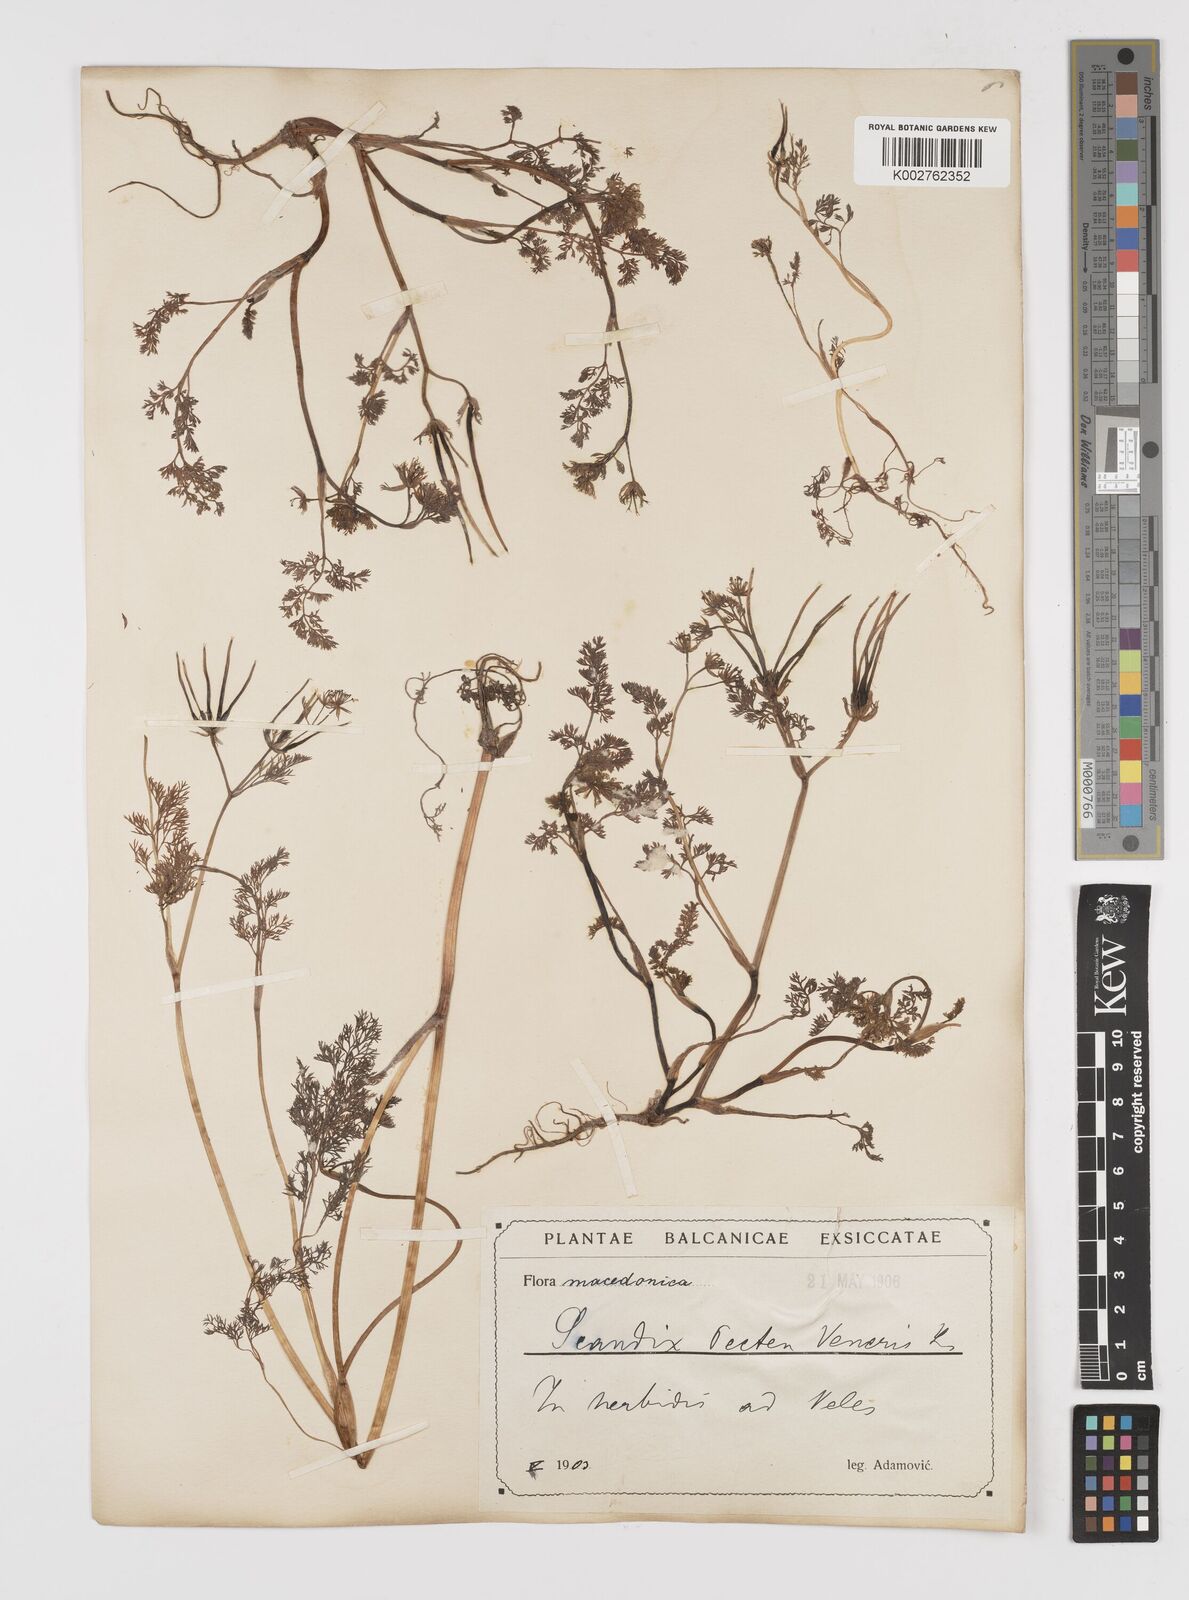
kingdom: Plantae
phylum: Tracheophyta
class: Magnoliopsida
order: Apiales
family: Apiaceae
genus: Scandix
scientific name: Scandix pecten-veneris
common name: Shepherd's-needle
